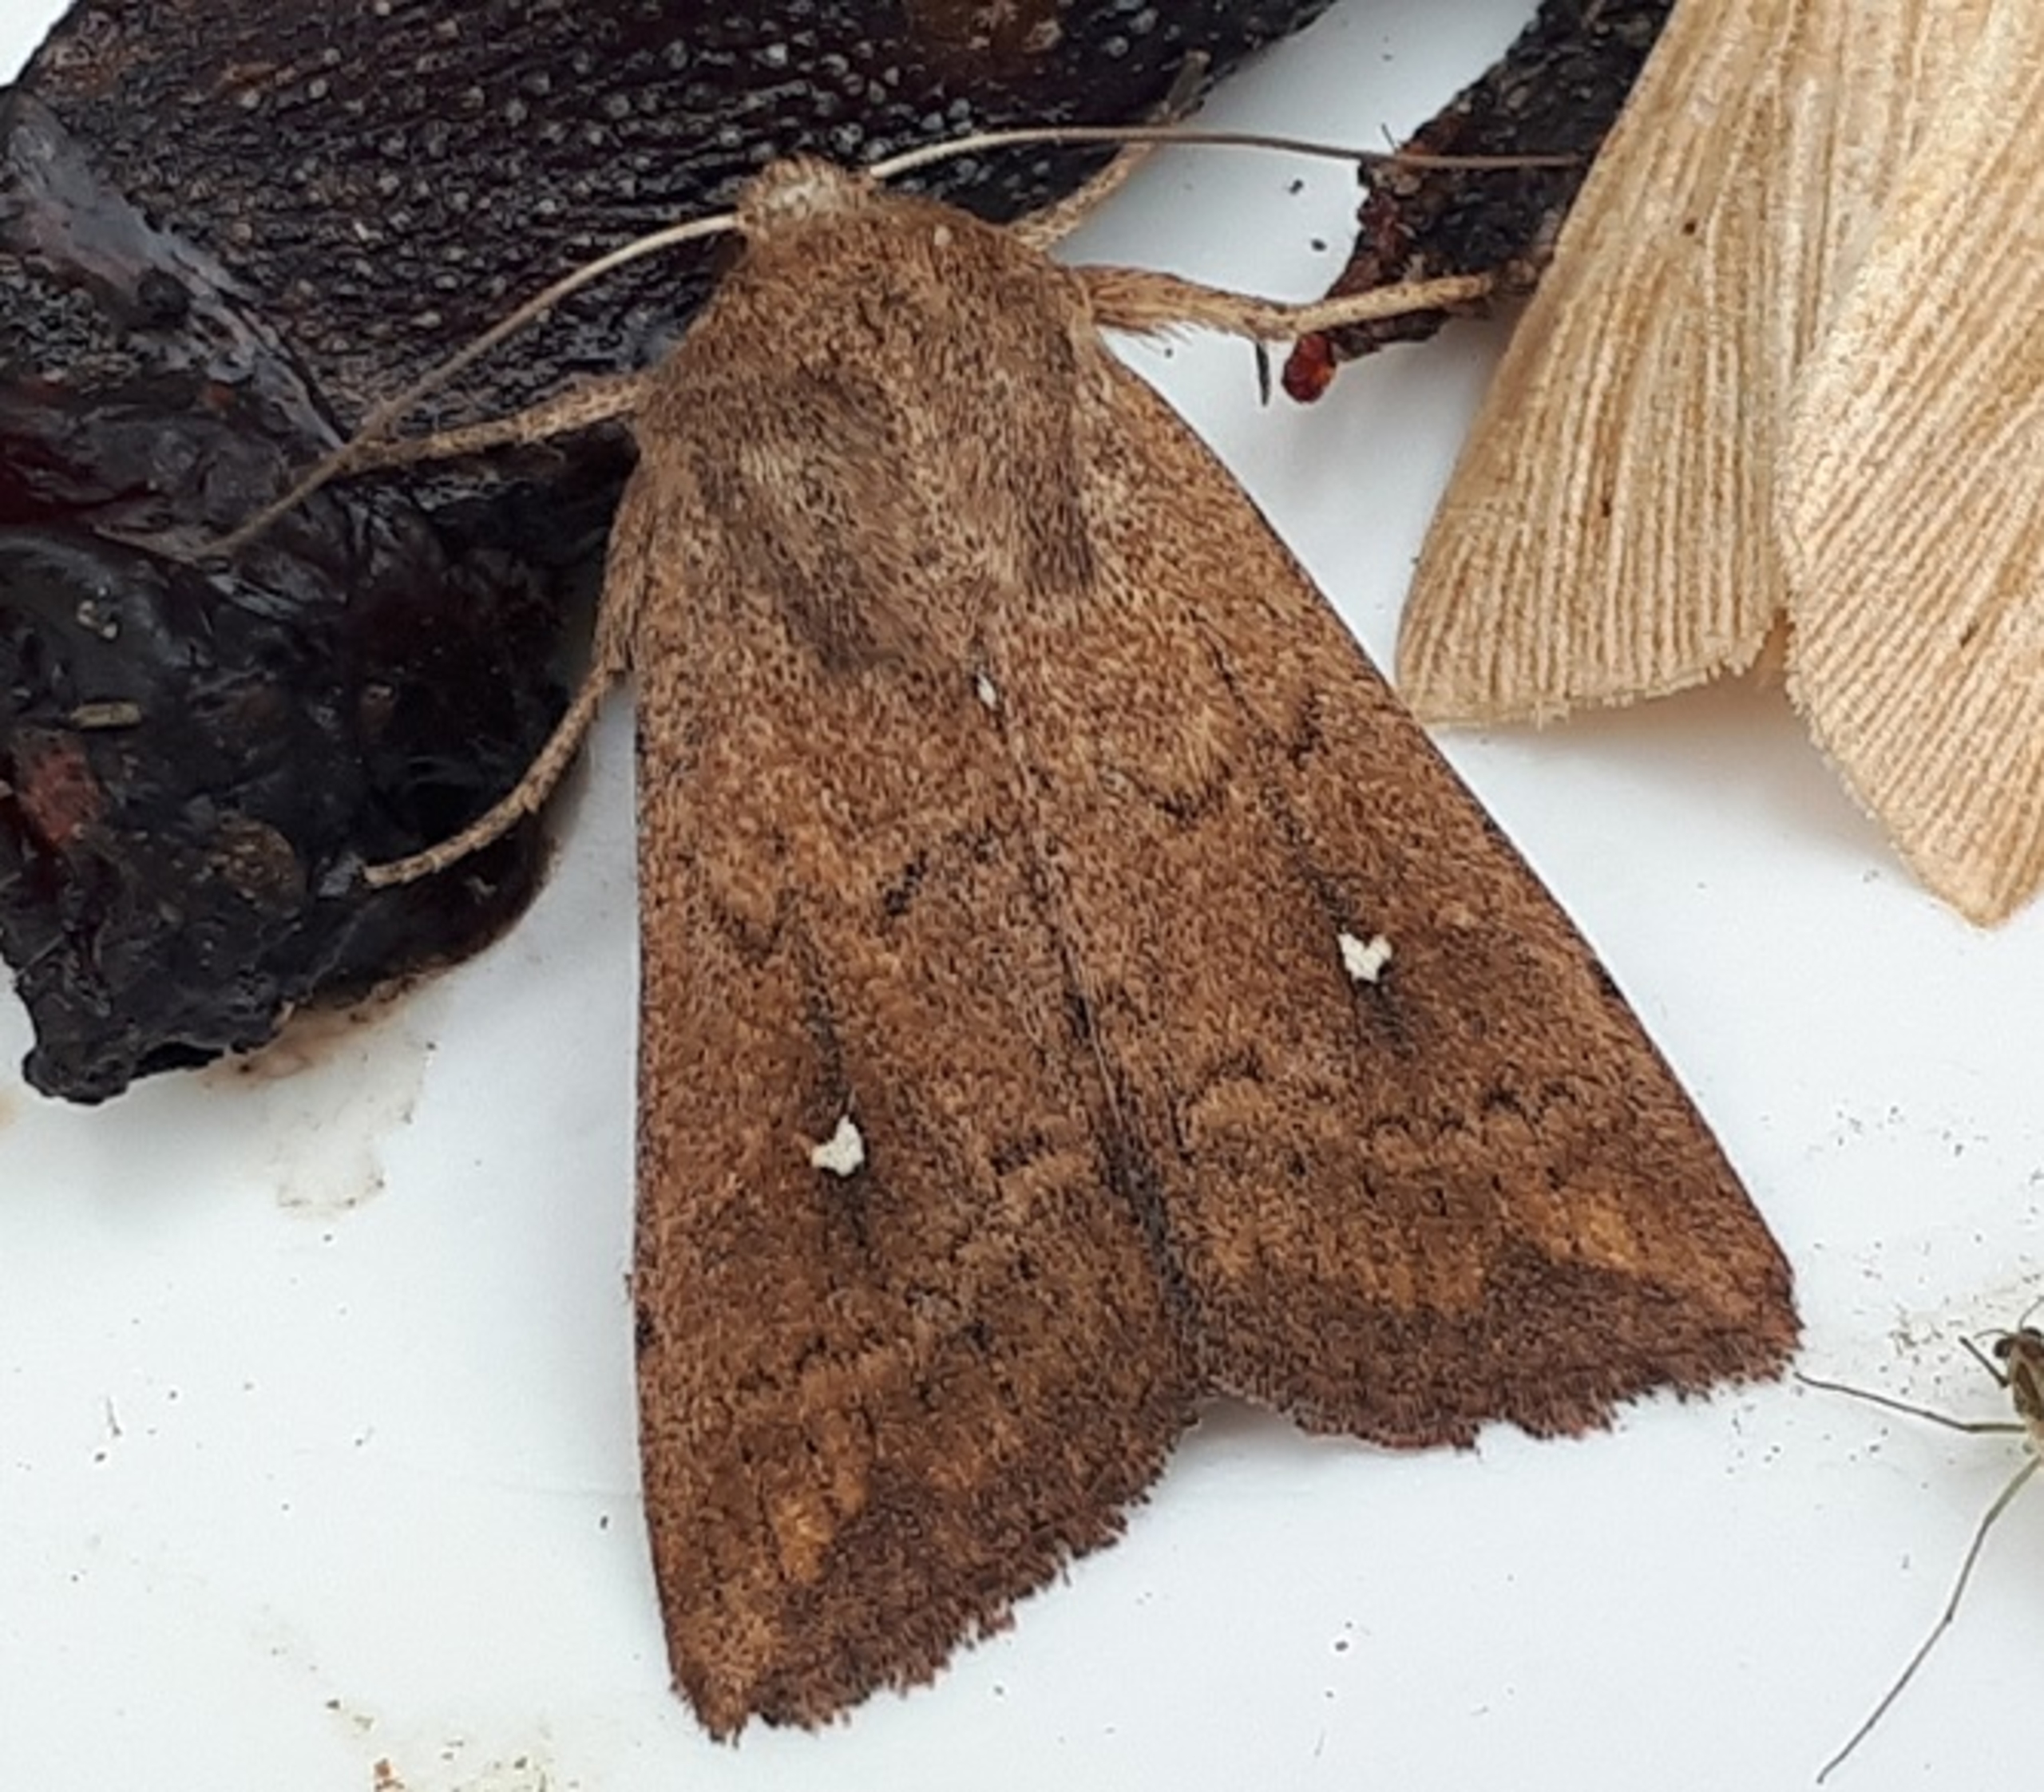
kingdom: Animalia
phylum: Arthropoda
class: Insecta
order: Lepidoptera
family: Noctuidae
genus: Mythimna
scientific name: Mythimna albipuncta
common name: Hvid-punkt græsugle
